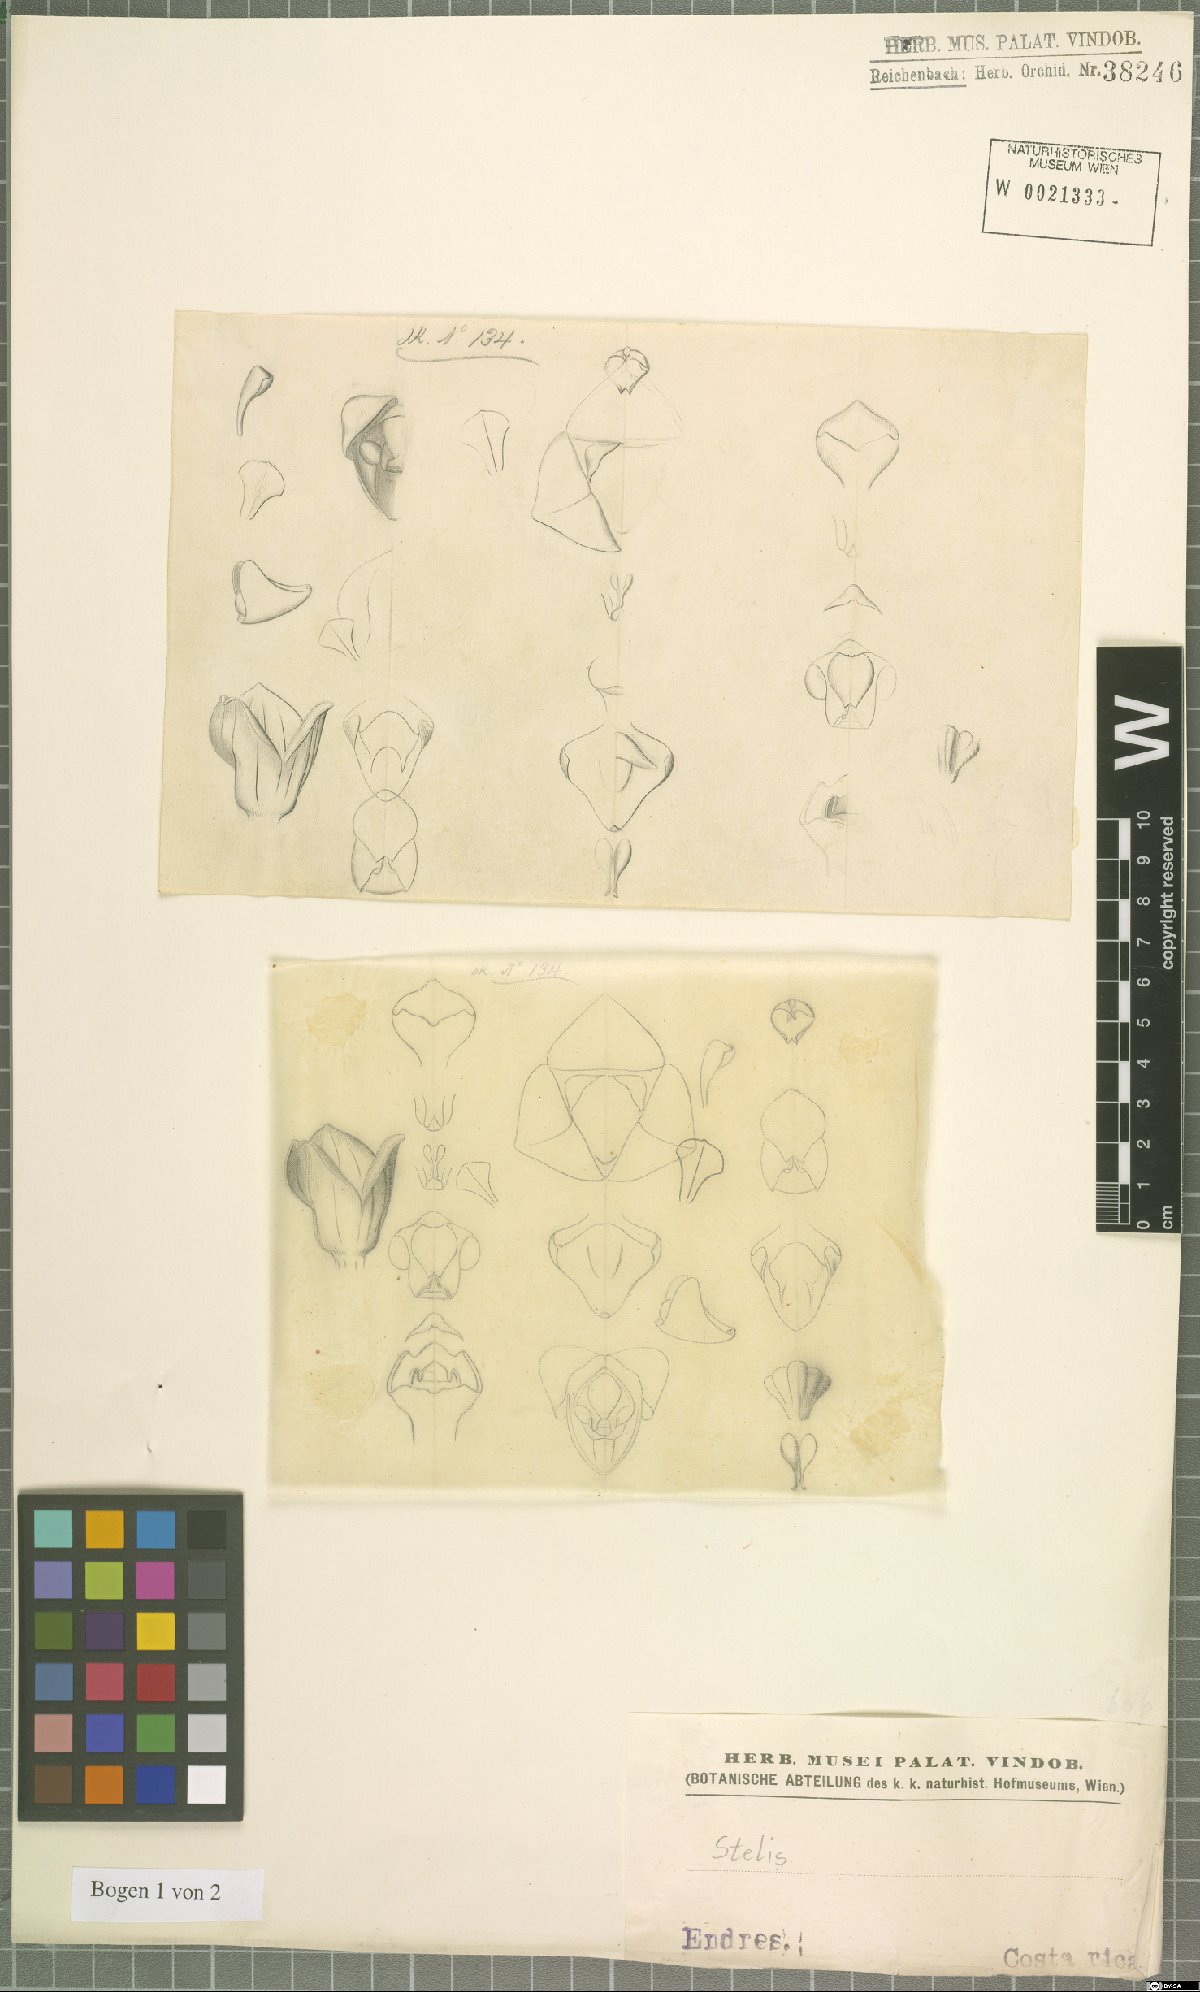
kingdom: Plantae
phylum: Tracheophyta
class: Liliopsida
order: Asparagales
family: Orchidaceae
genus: Stelis
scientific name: Stelis
